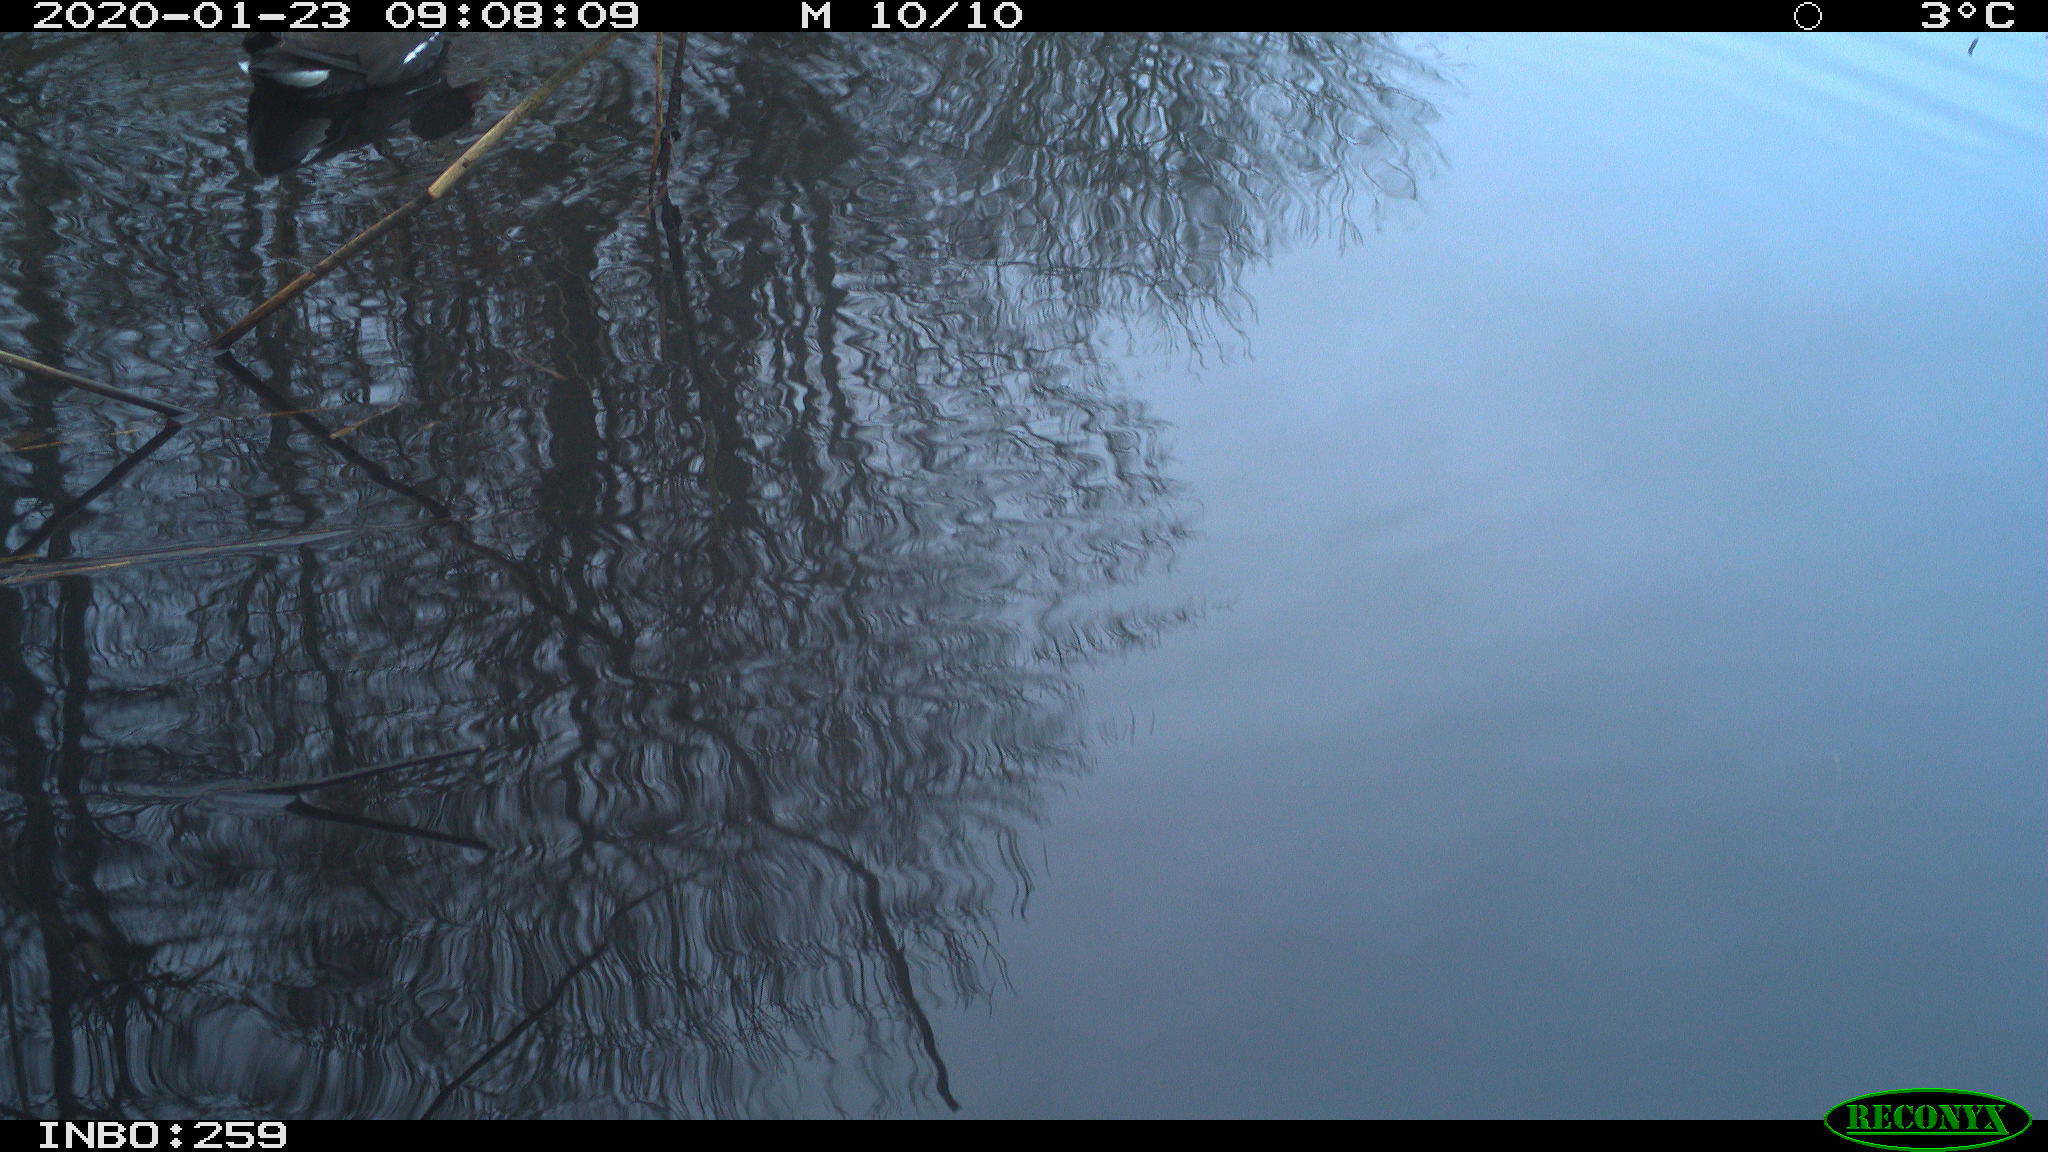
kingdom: Animalia
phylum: Chordata
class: Aves
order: Gruiformes
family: Rallidae
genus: Gallinula
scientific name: Gallinula chloropus
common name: Common moorhen
